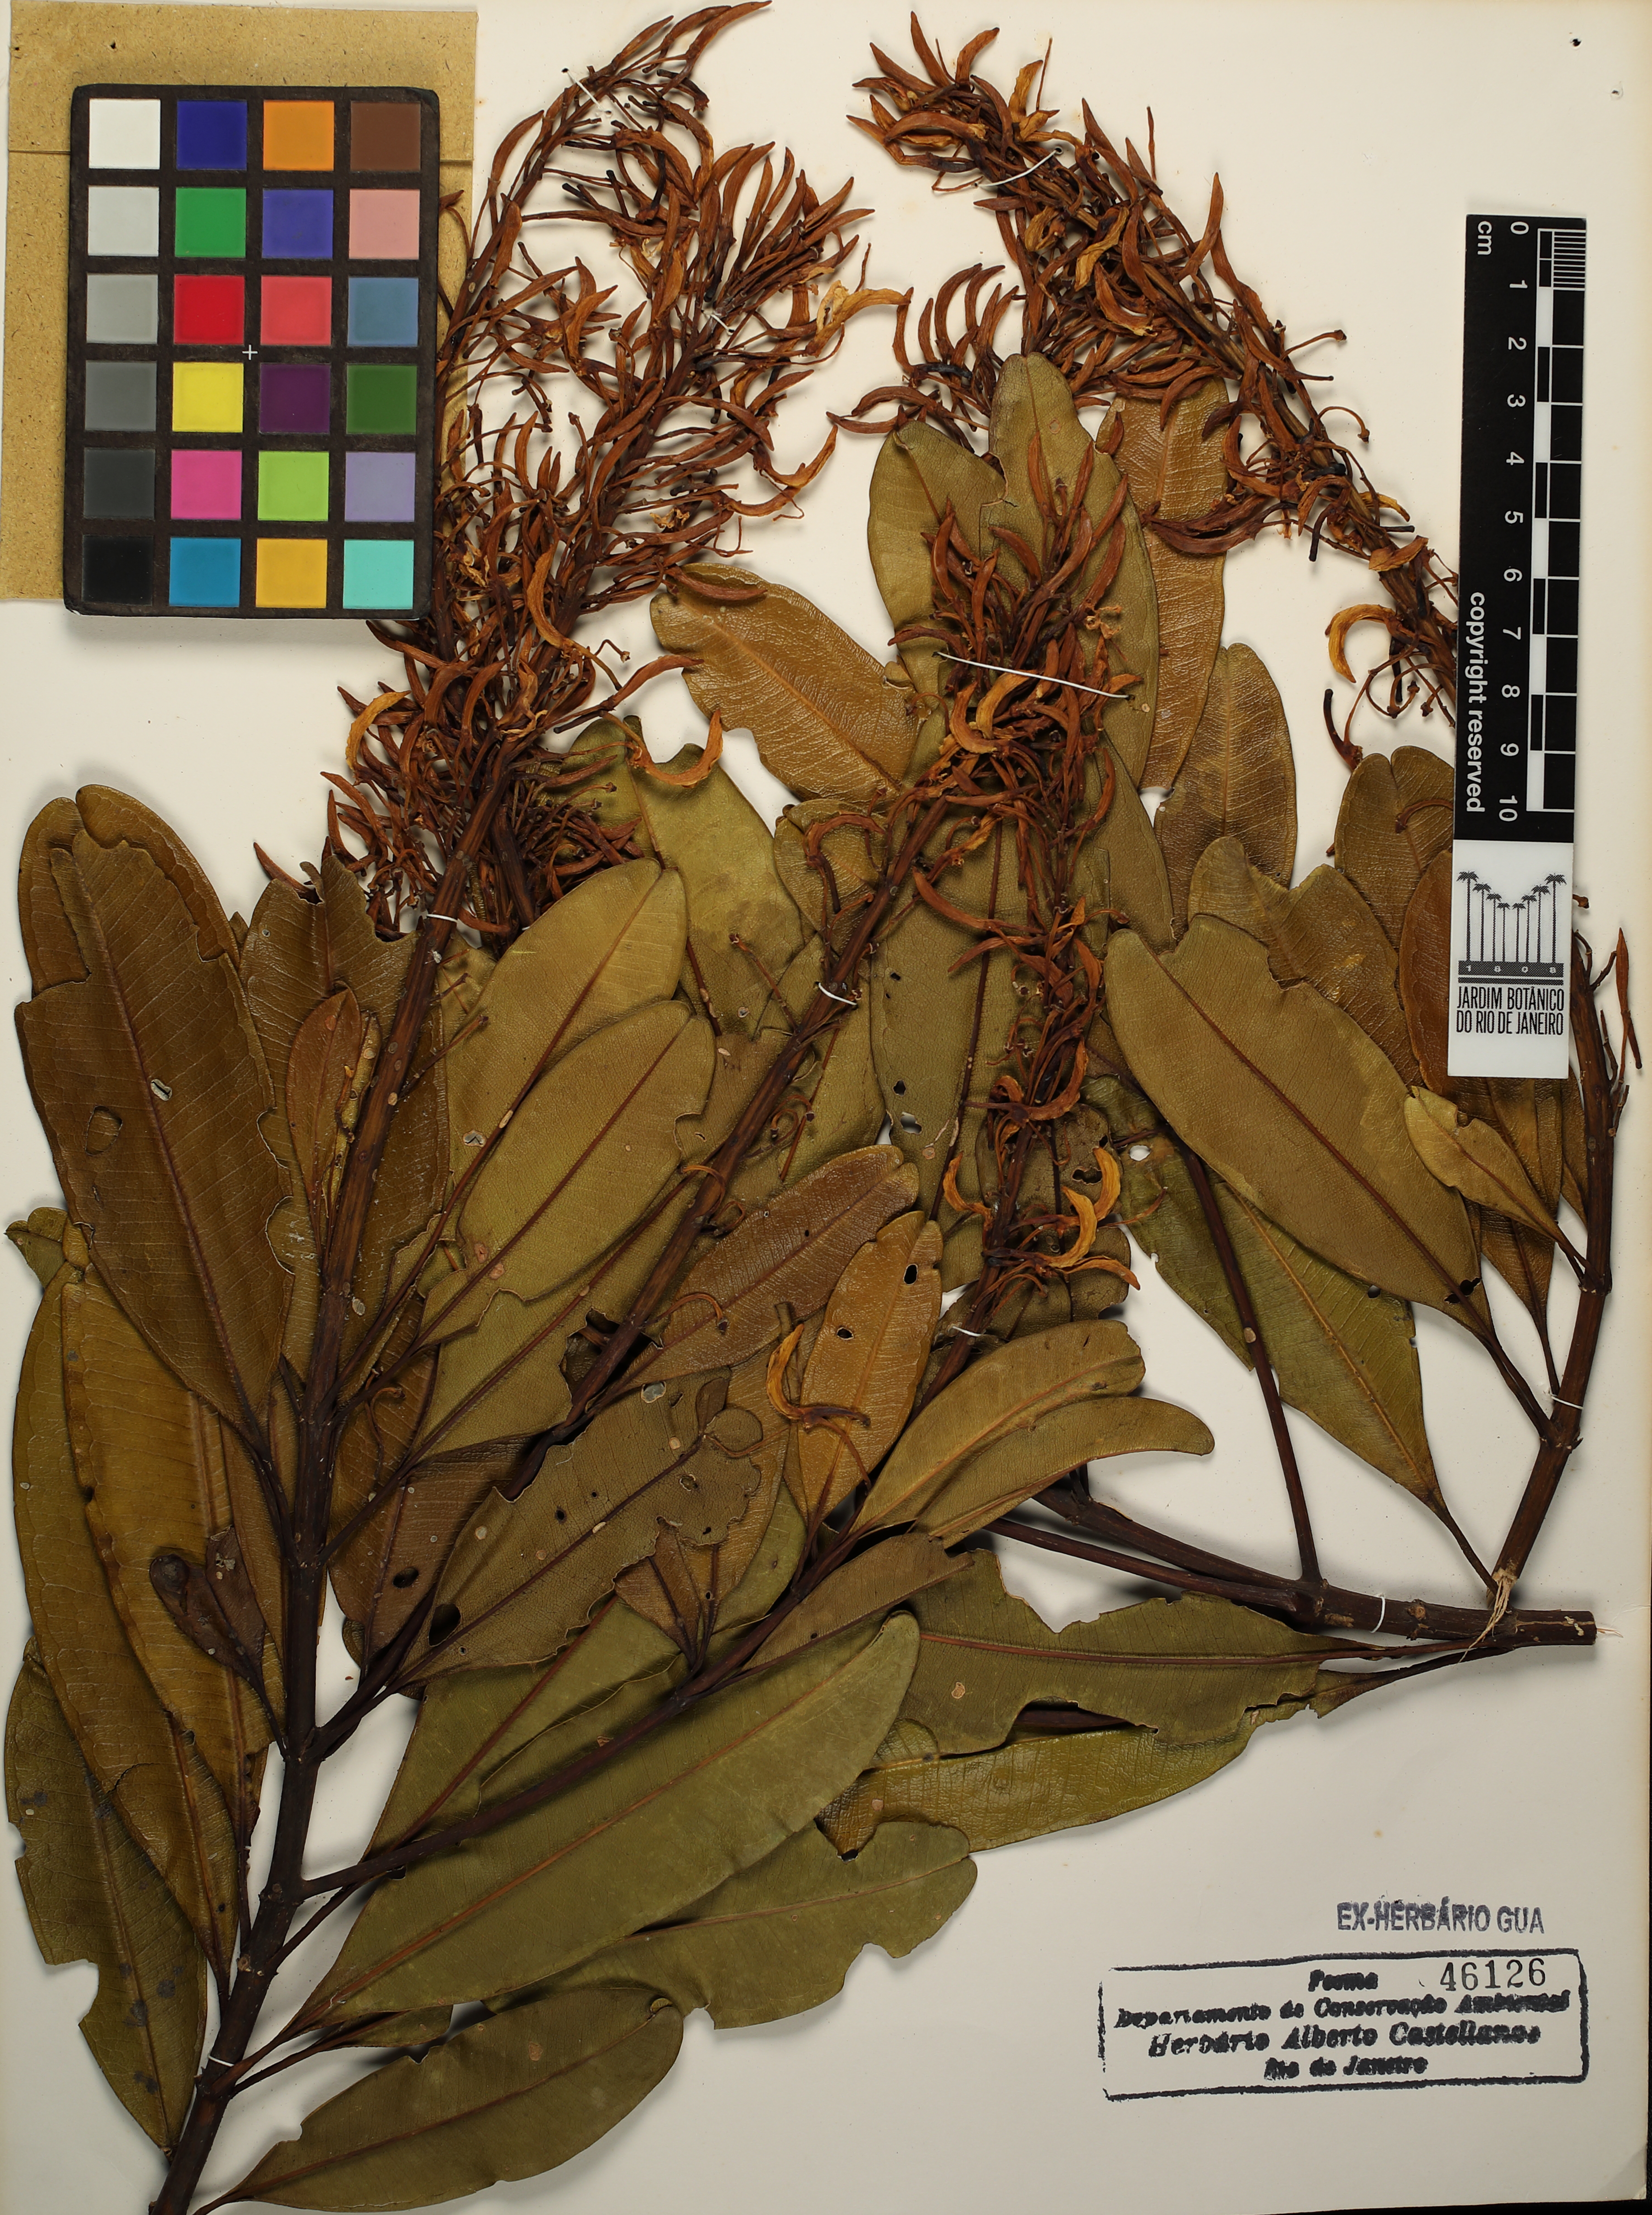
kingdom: Plantae
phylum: Tracheophyta
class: Magnoliopsida
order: Myrtales
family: Vochysiaceae
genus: Vochysia
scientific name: Vochysia oppugnata
